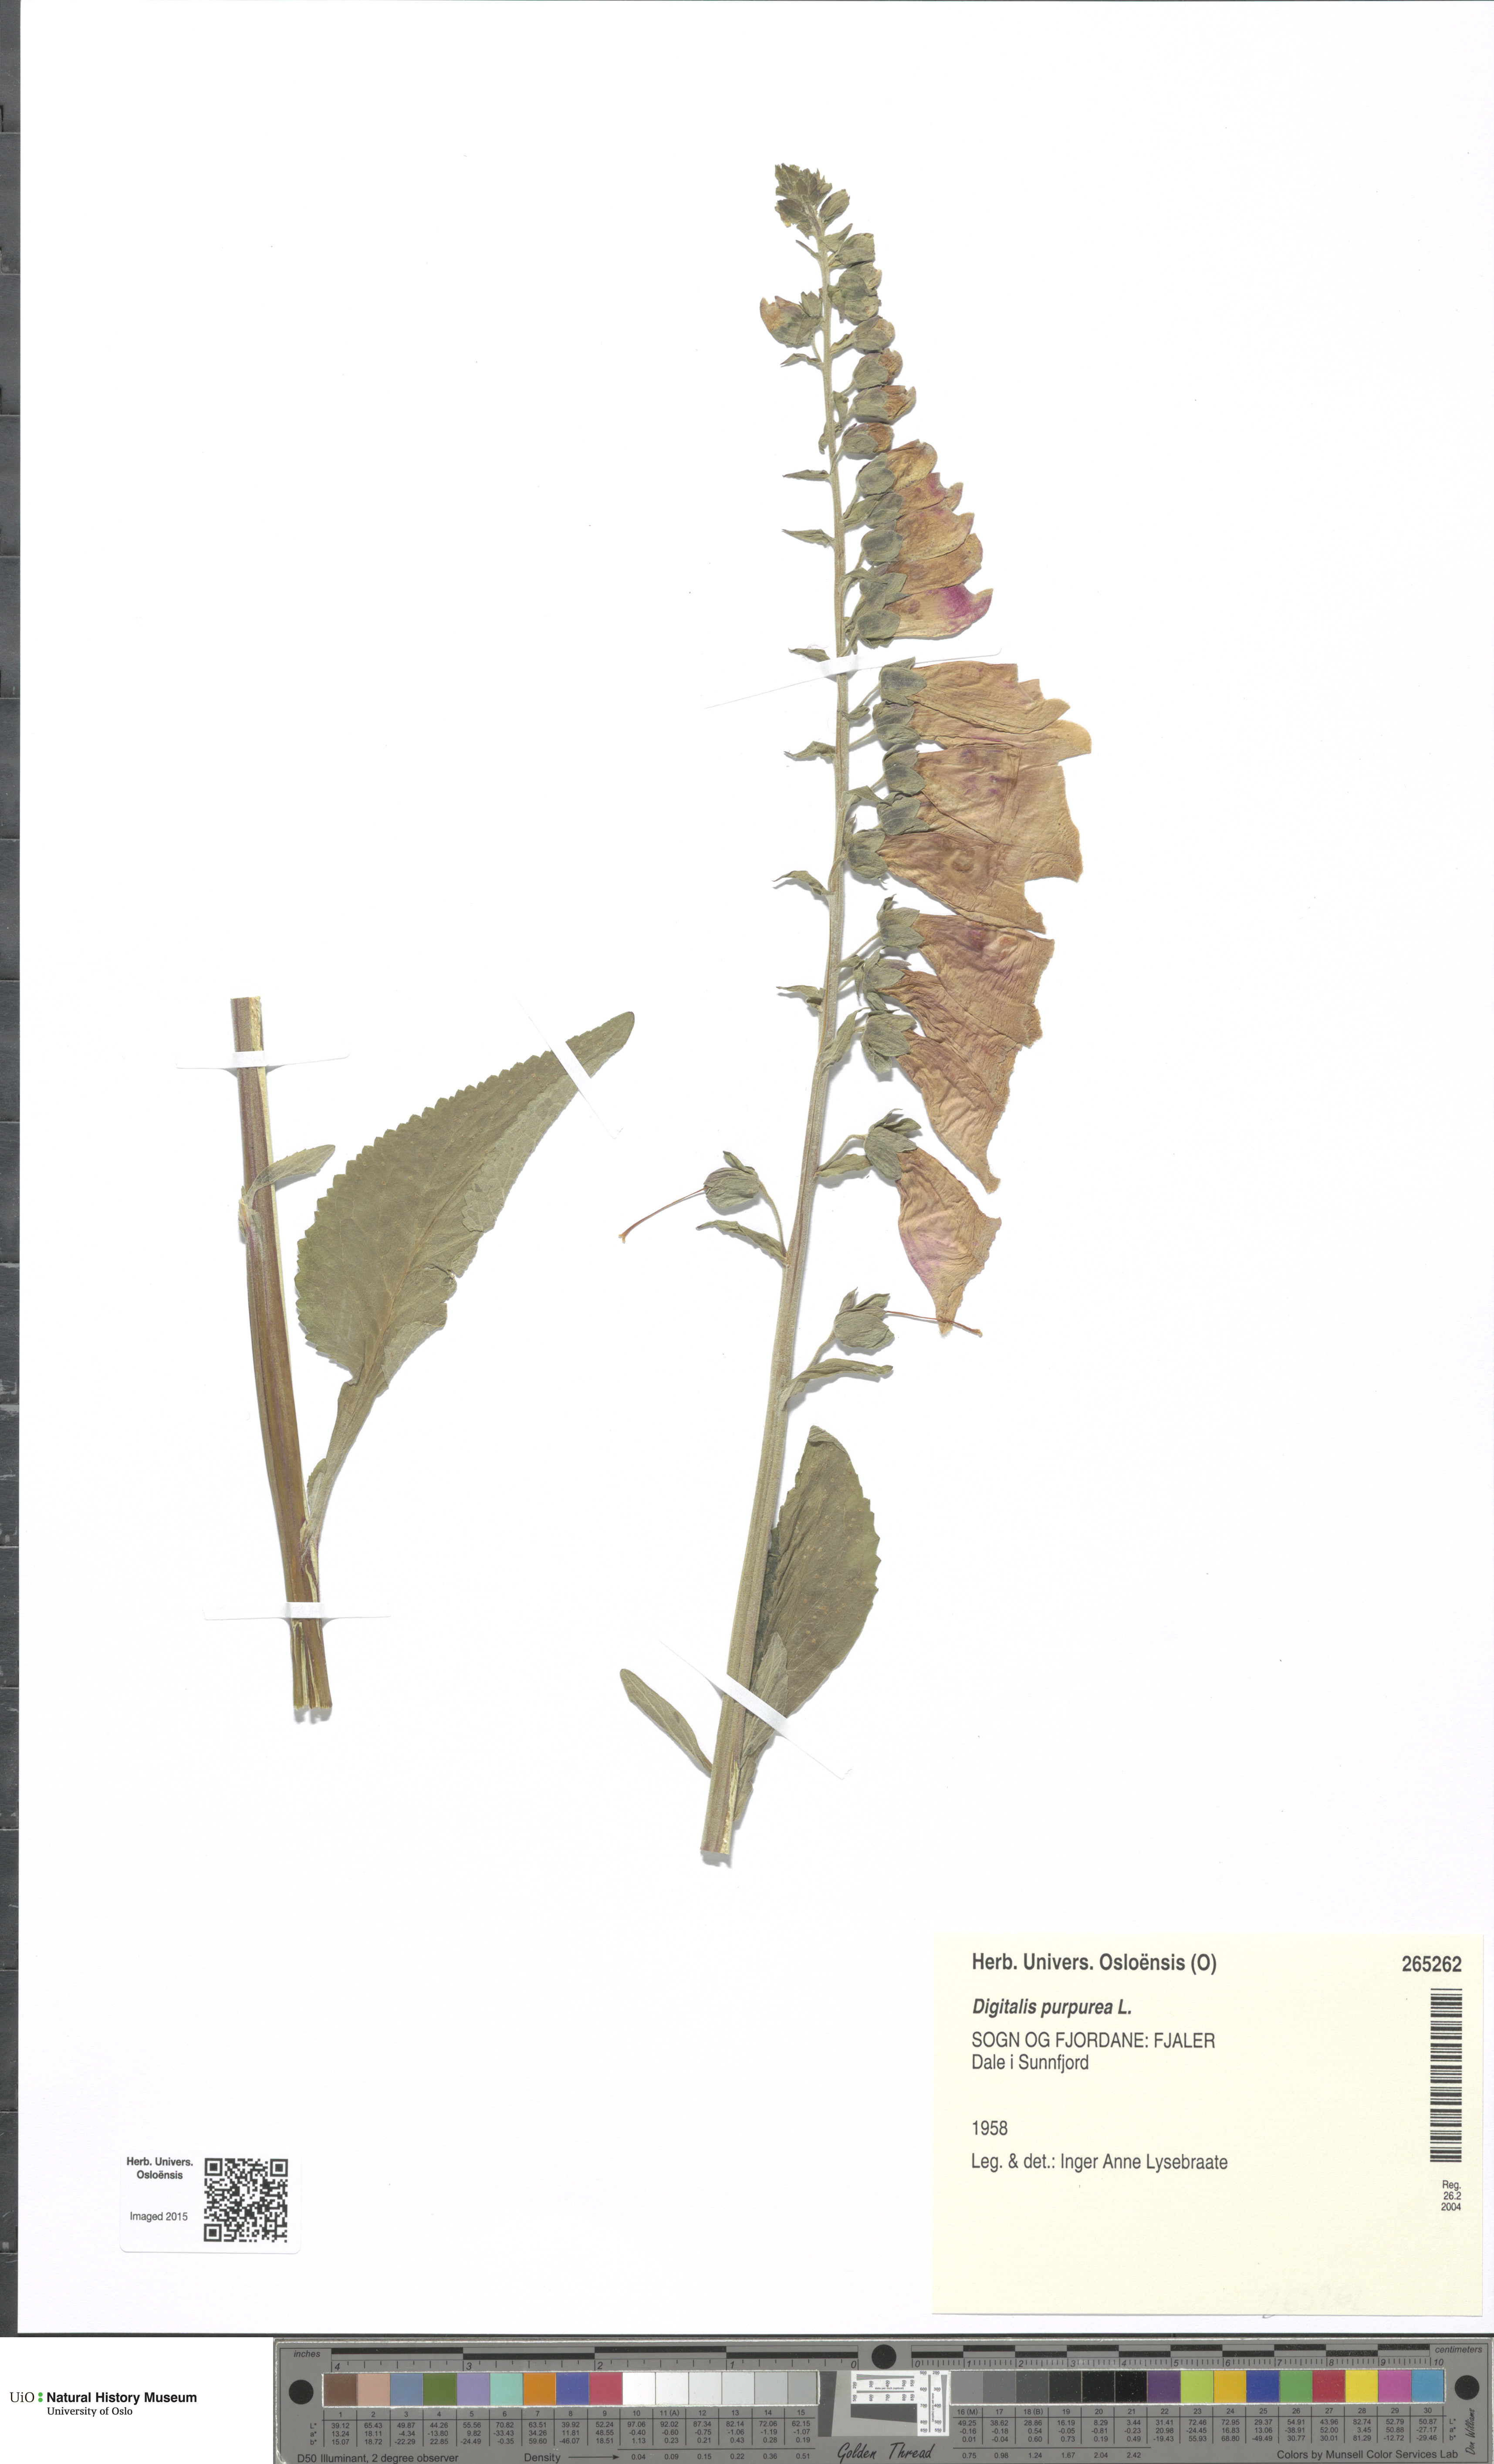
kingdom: Plantae
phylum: Tracheophyta
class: Magnoliopsida
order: Lamiales
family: Plantaginaceae
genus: Digitalis
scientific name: Digitalis purpurea
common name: Foxglove
